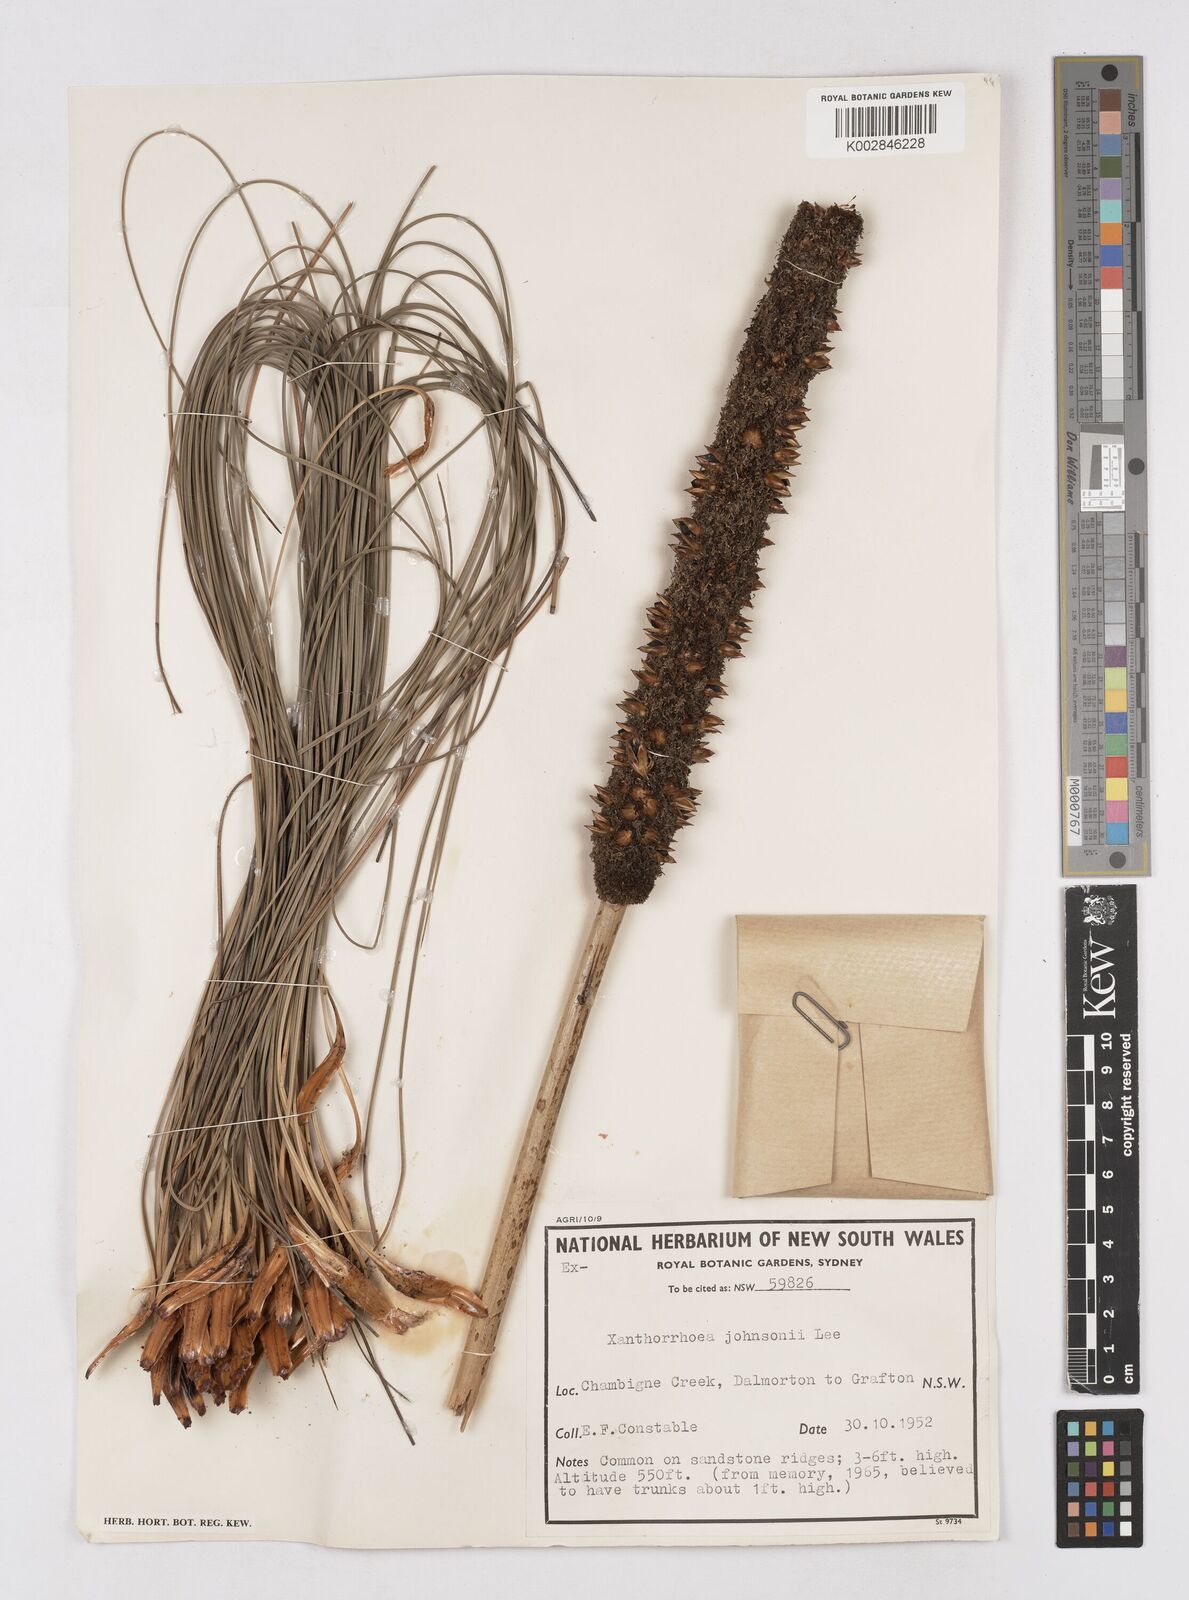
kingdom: Plantae
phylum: Tracheophyta
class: Liliopsida
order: Asparagales
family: Asphodelaceae
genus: Xanthorrhoea
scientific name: Xanthorrhoea johnsonii
